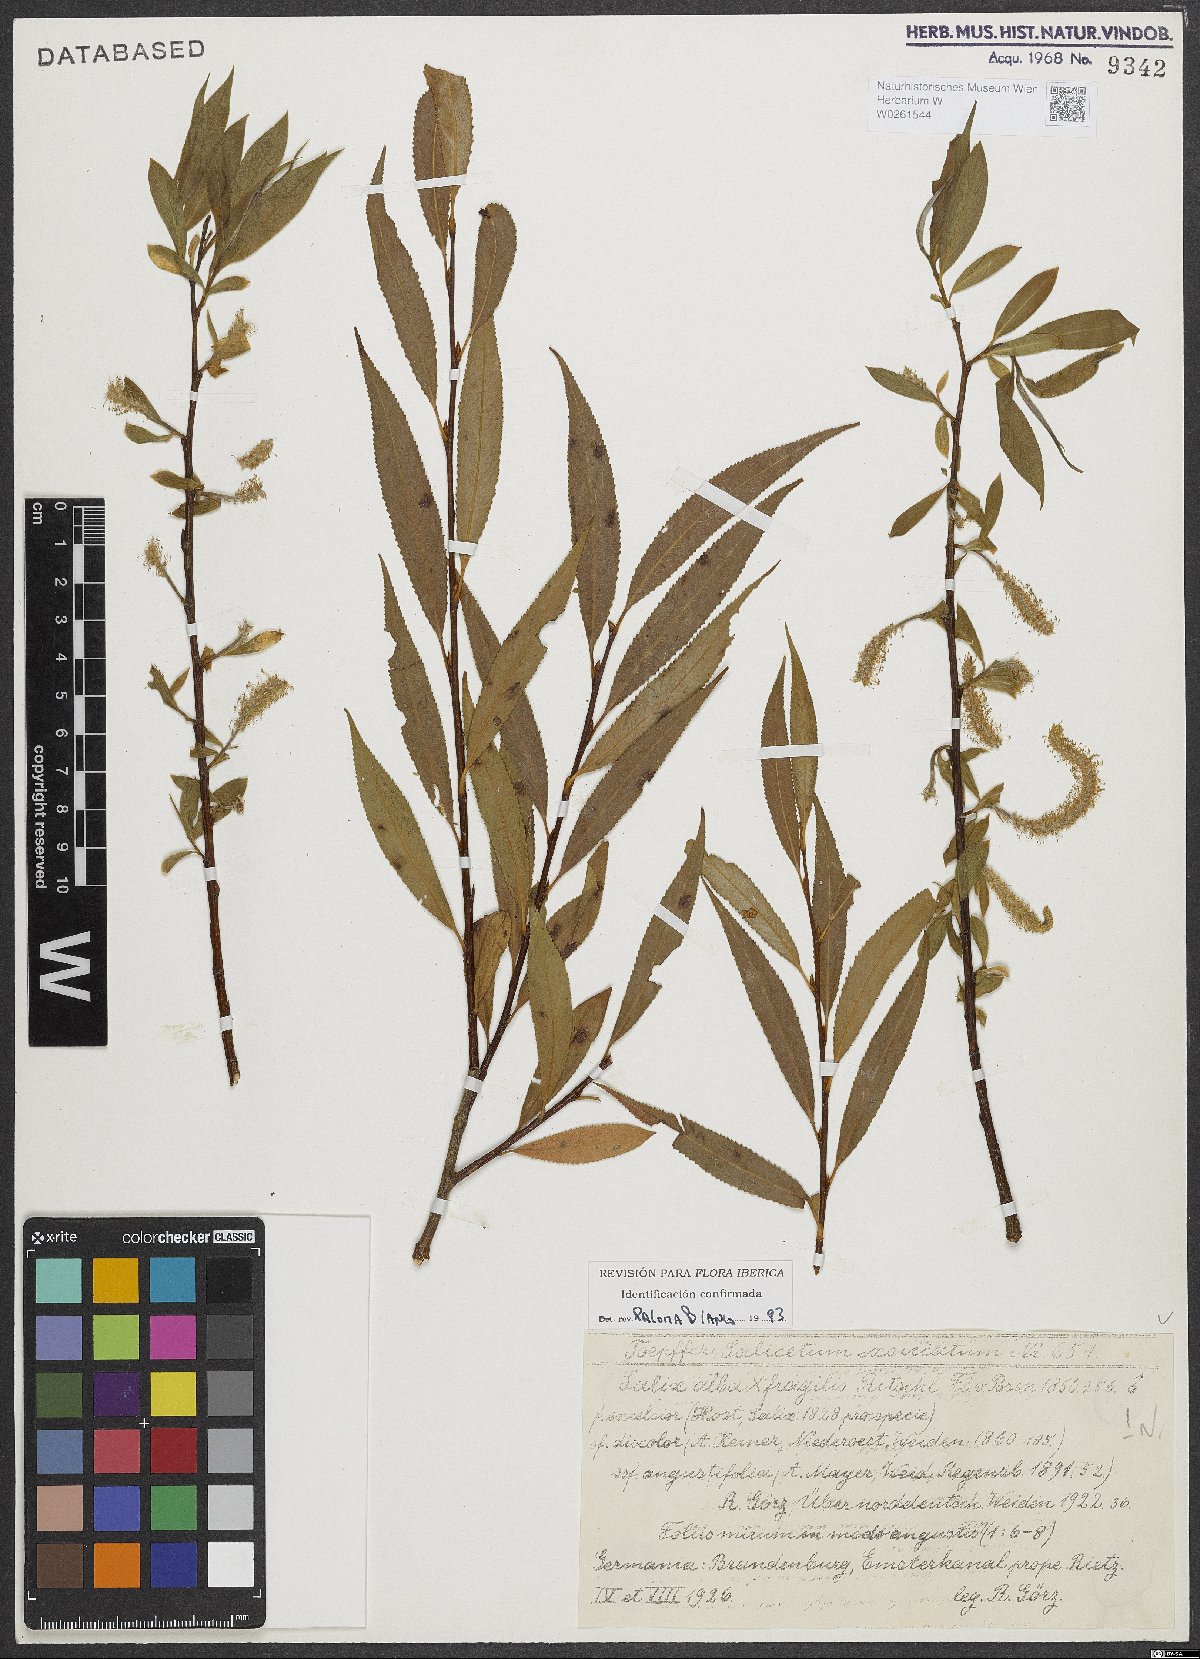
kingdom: Plantae
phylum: Tracheophyta
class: Magnoliopsida
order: Malpighiales
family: Salicaceae
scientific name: Salicaceae
